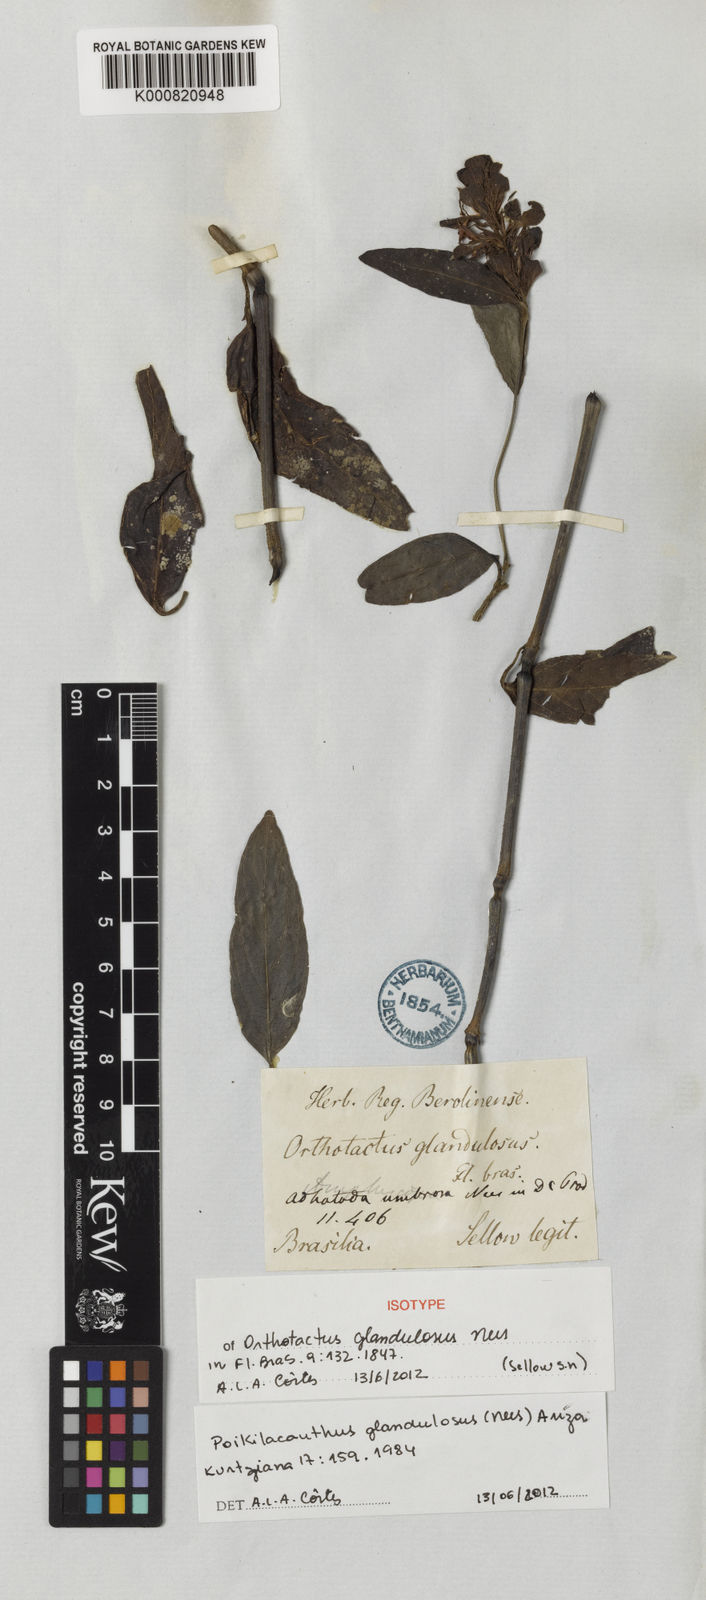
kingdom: Plantae
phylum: Tracheophyta
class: Magnoliopsida
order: Lamiales
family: Acanthaceae
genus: Poikilacanthus
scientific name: Poikilacanthus glandulosus
